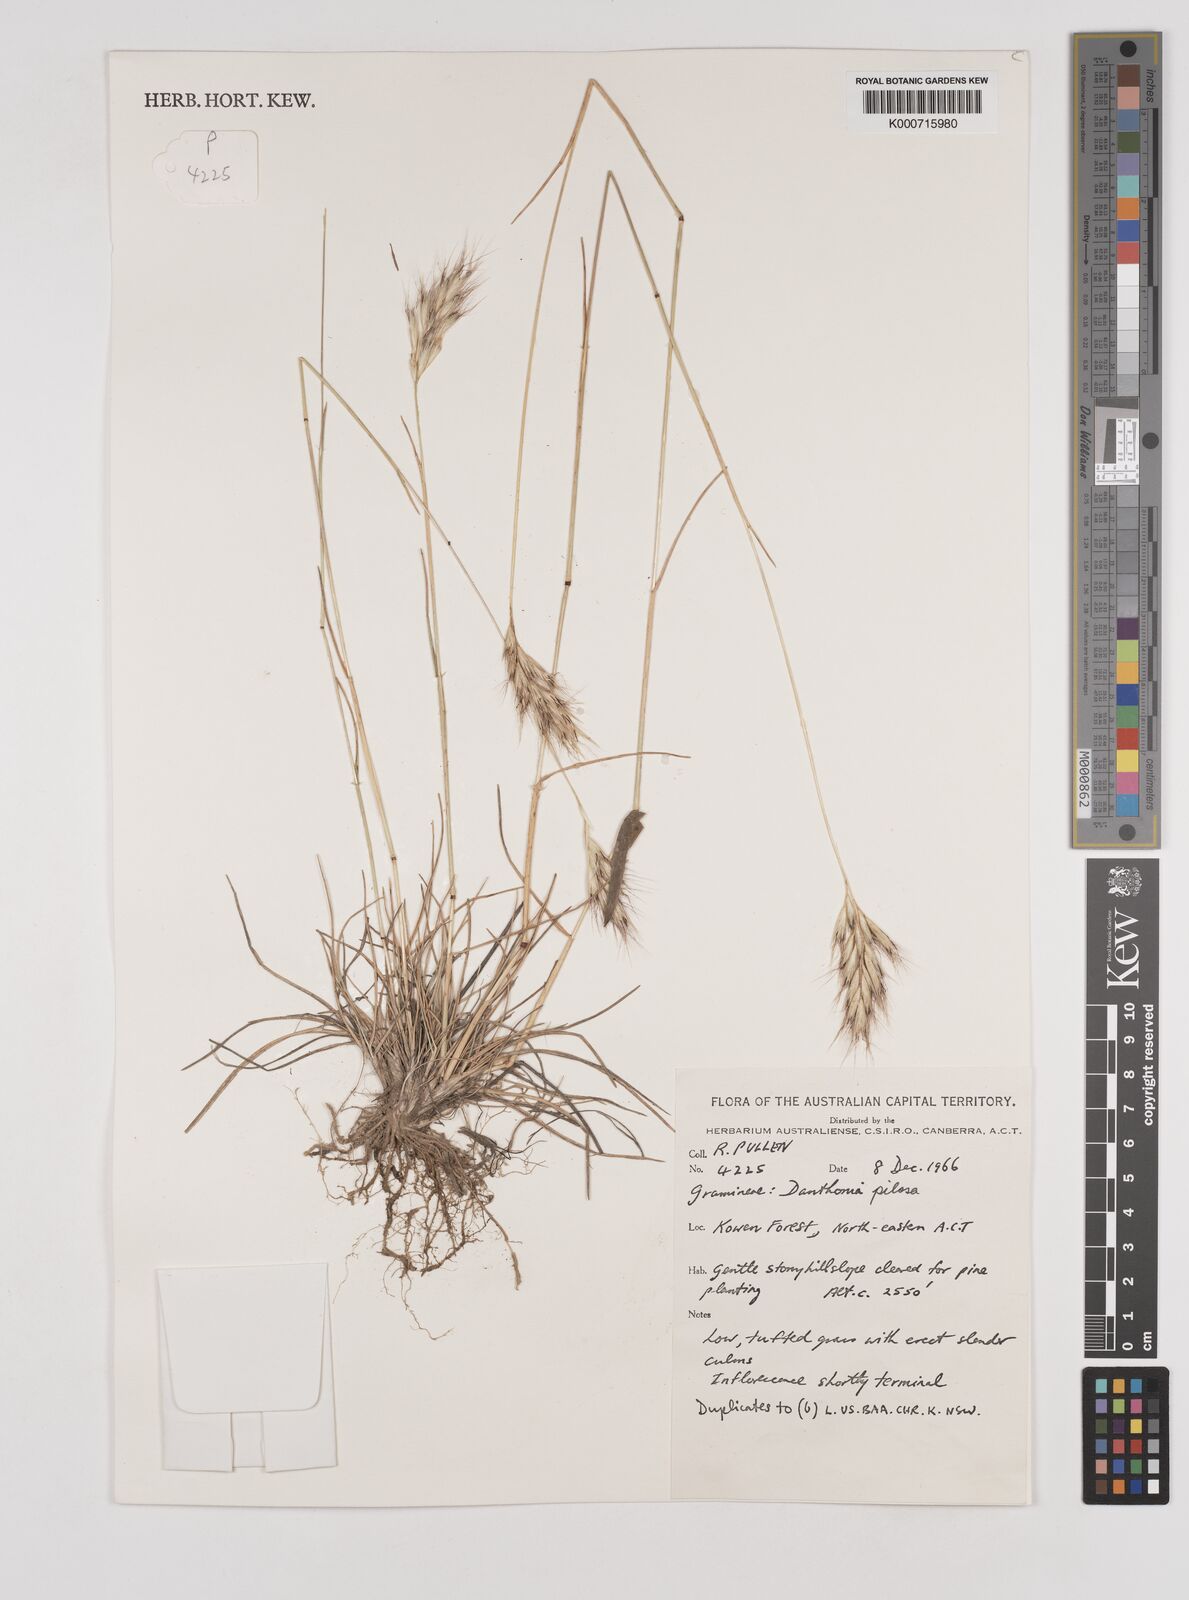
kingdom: Plantae
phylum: Tracheophyta
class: Liliopsida
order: Poales
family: Poaceae
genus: Rytidosperma
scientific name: Rytidosperma pilosum
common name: Hairy wallaby grass
